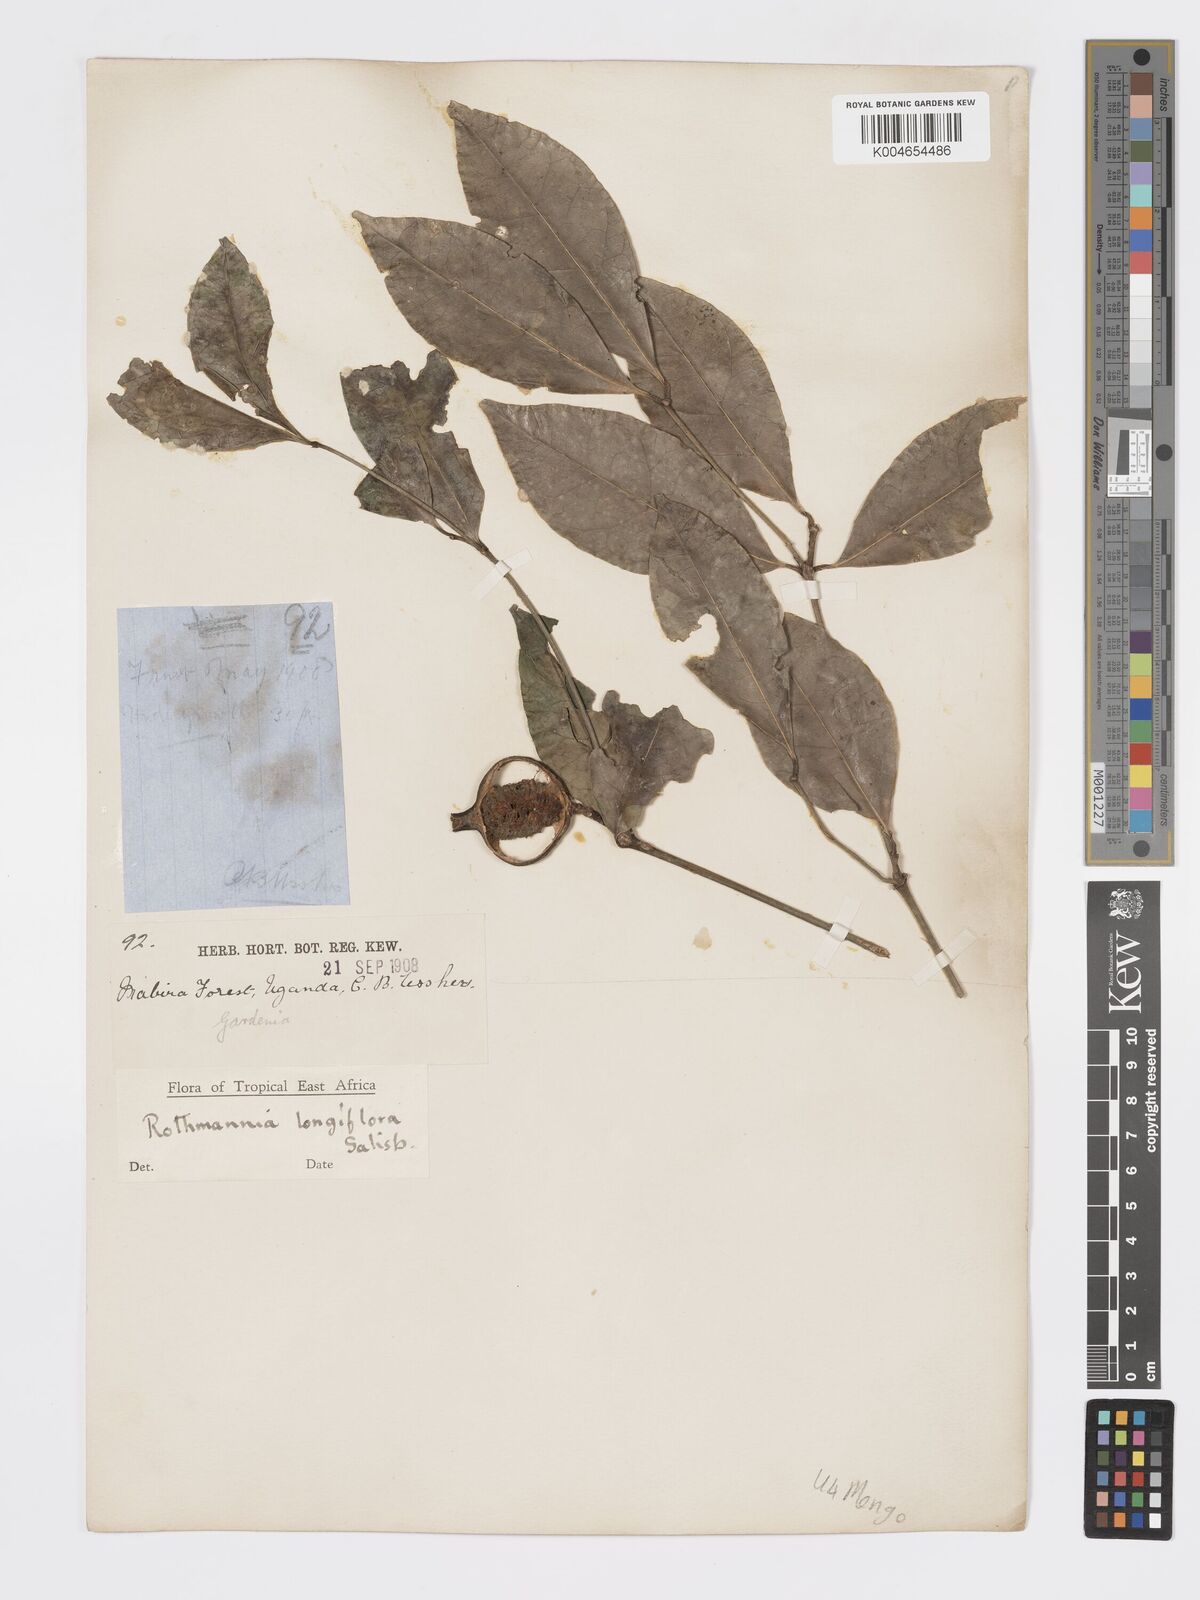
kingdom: Plantae
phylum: Tracheophyta
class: Magnoliopsida
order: Gentianales
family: Rubiaceae
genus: Rothmannia
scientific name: Rothmannia longiflora
